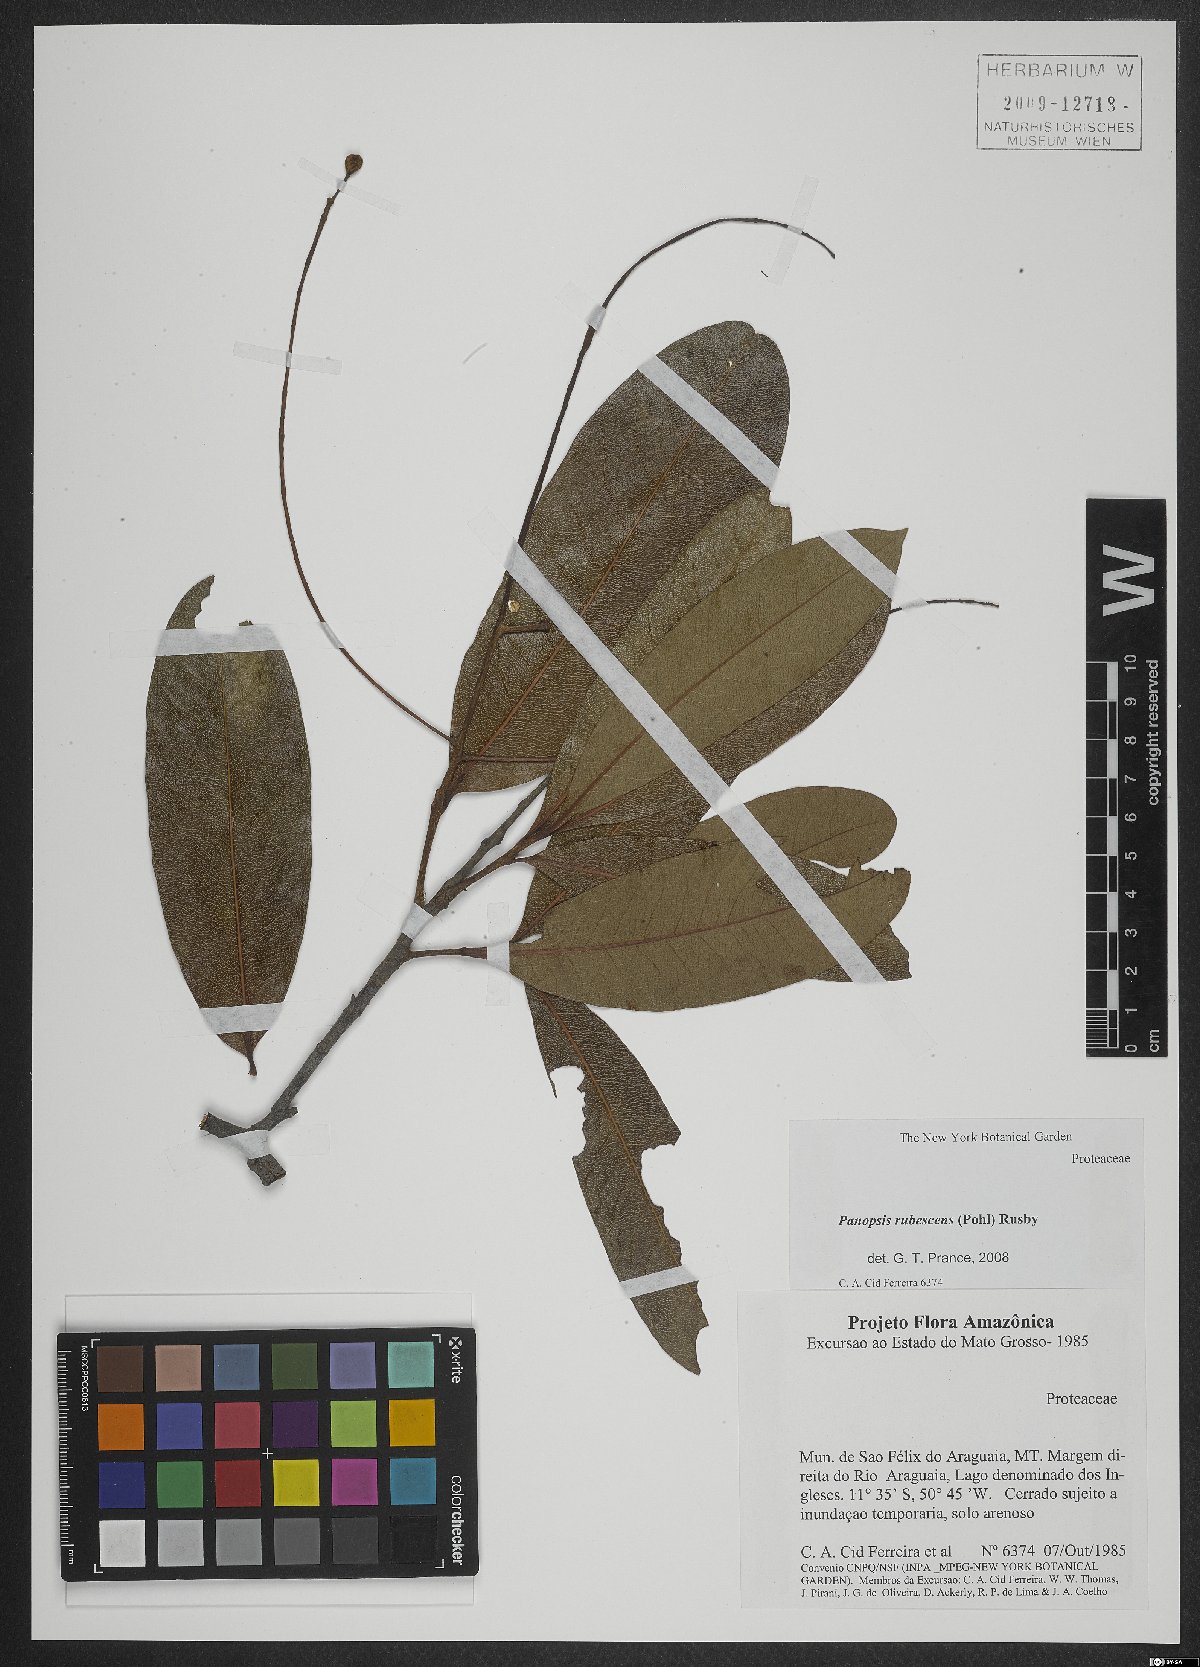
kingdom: Plantae
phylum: Tracheophyta
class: Magnoliopsida
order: Proteales
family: Proteaceae
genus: Panopsis
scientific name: Panopsis rubescens
